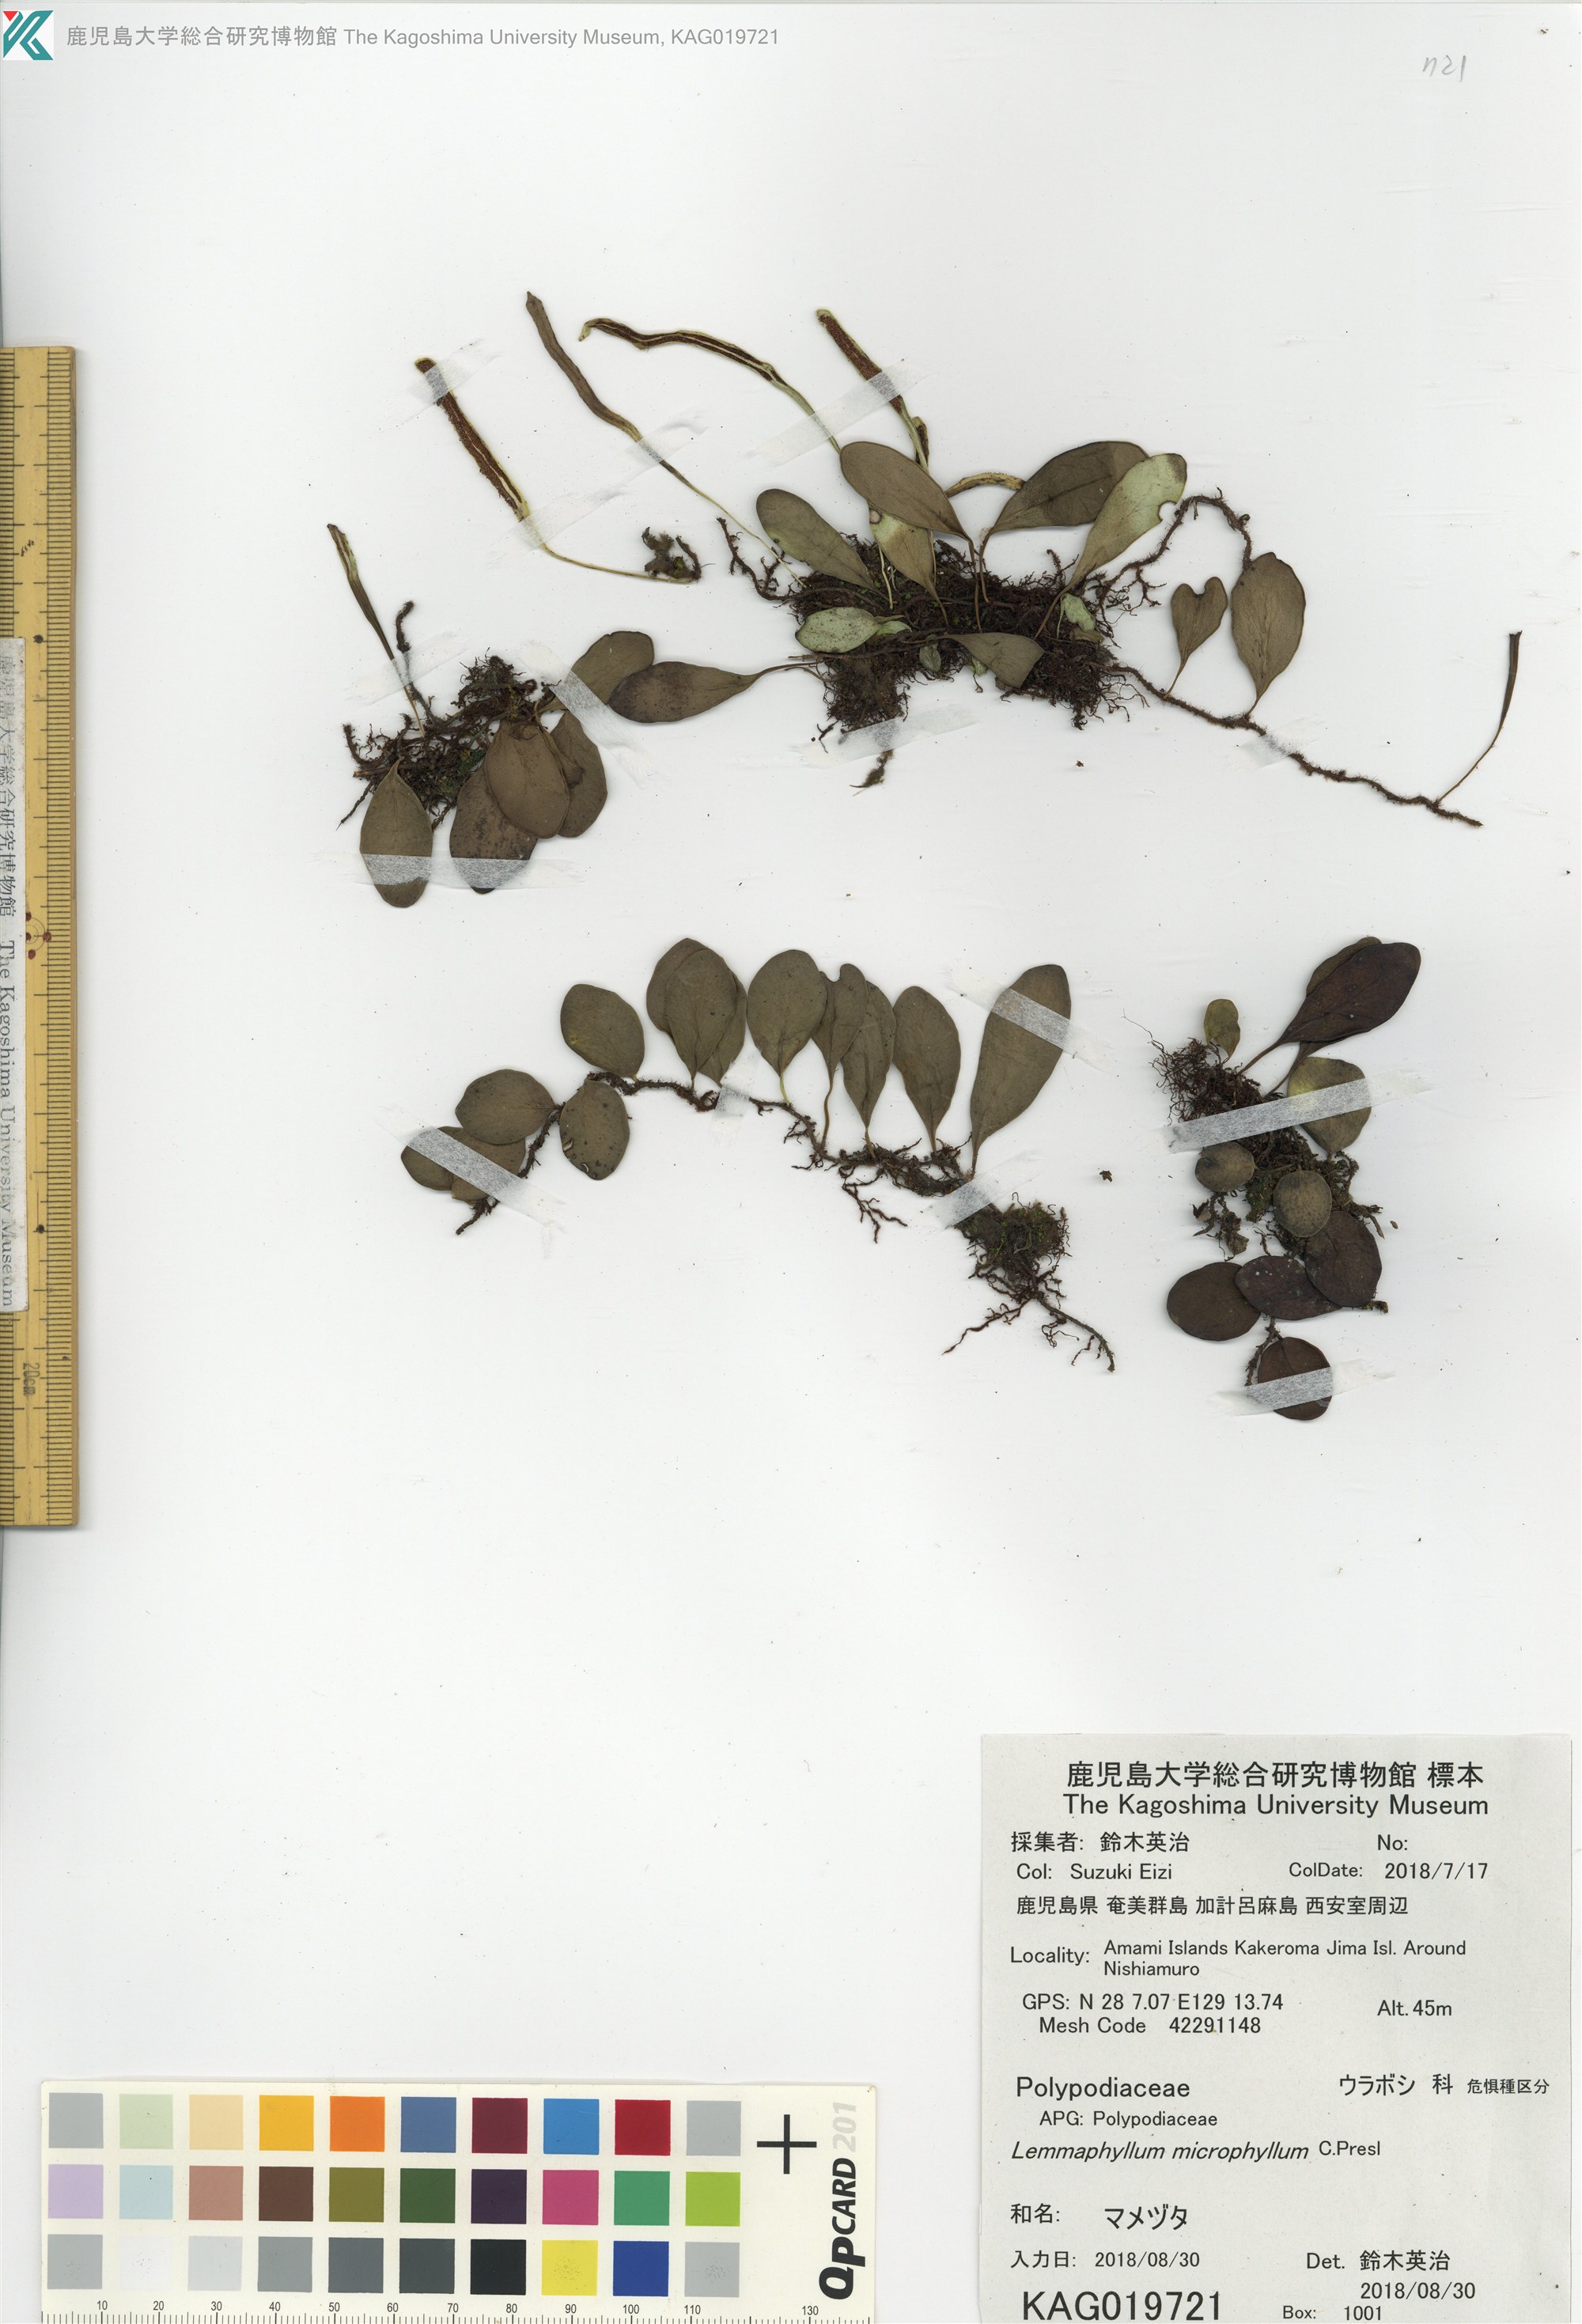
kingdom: Plantae
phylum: Tracheophyta
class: Polypodiopsida
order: Polypodiales
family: Polypodiaceae
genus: Lepisorus
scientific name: Lepisorus microphyllus
